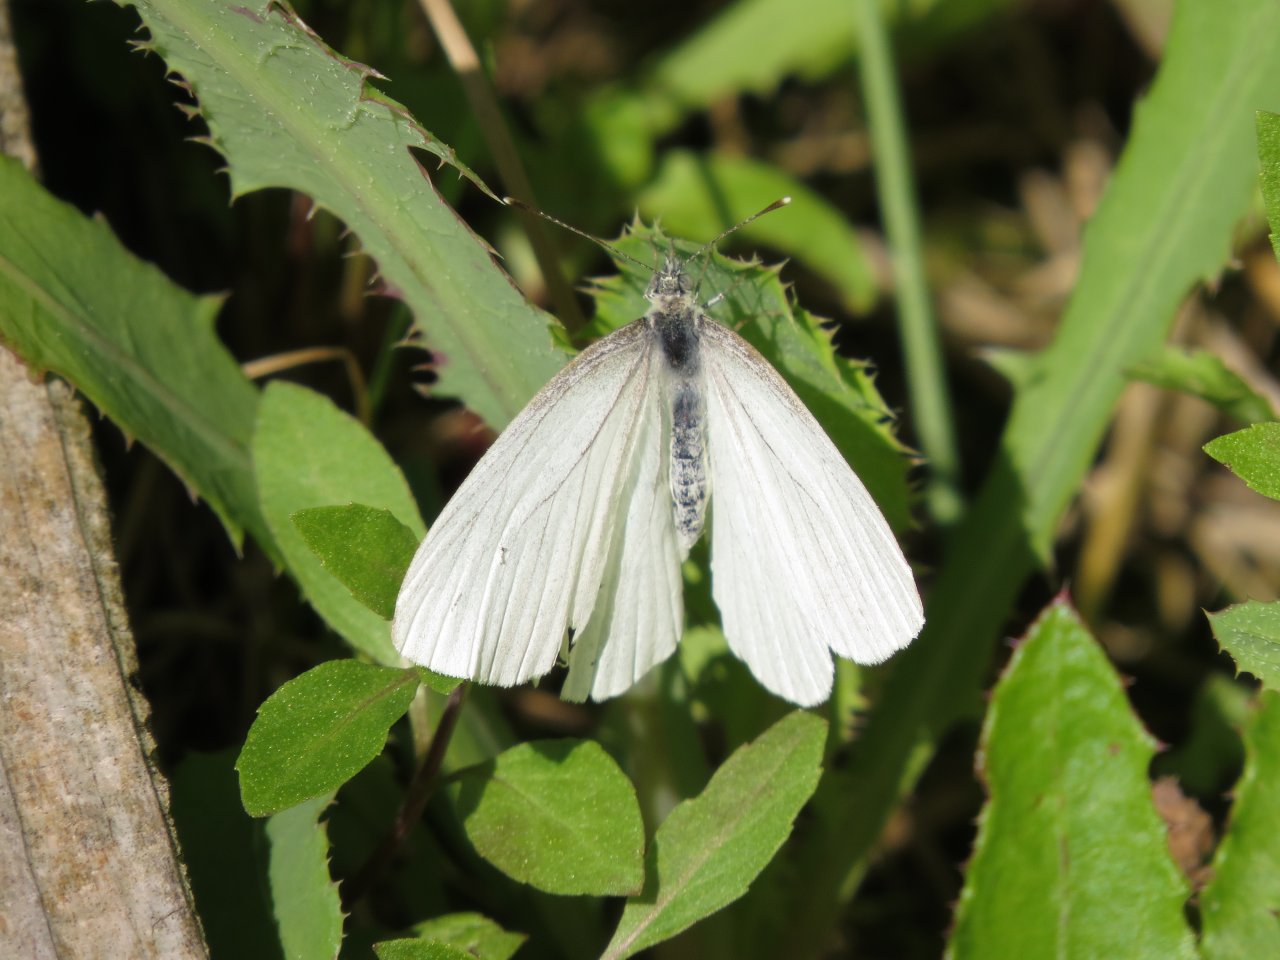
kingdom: Animalia
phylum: Arthropoda
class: Insecta
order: Lepidoptera
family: Pieridae
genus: Pieris
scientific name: Pieris oleracea
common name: Mustard White
